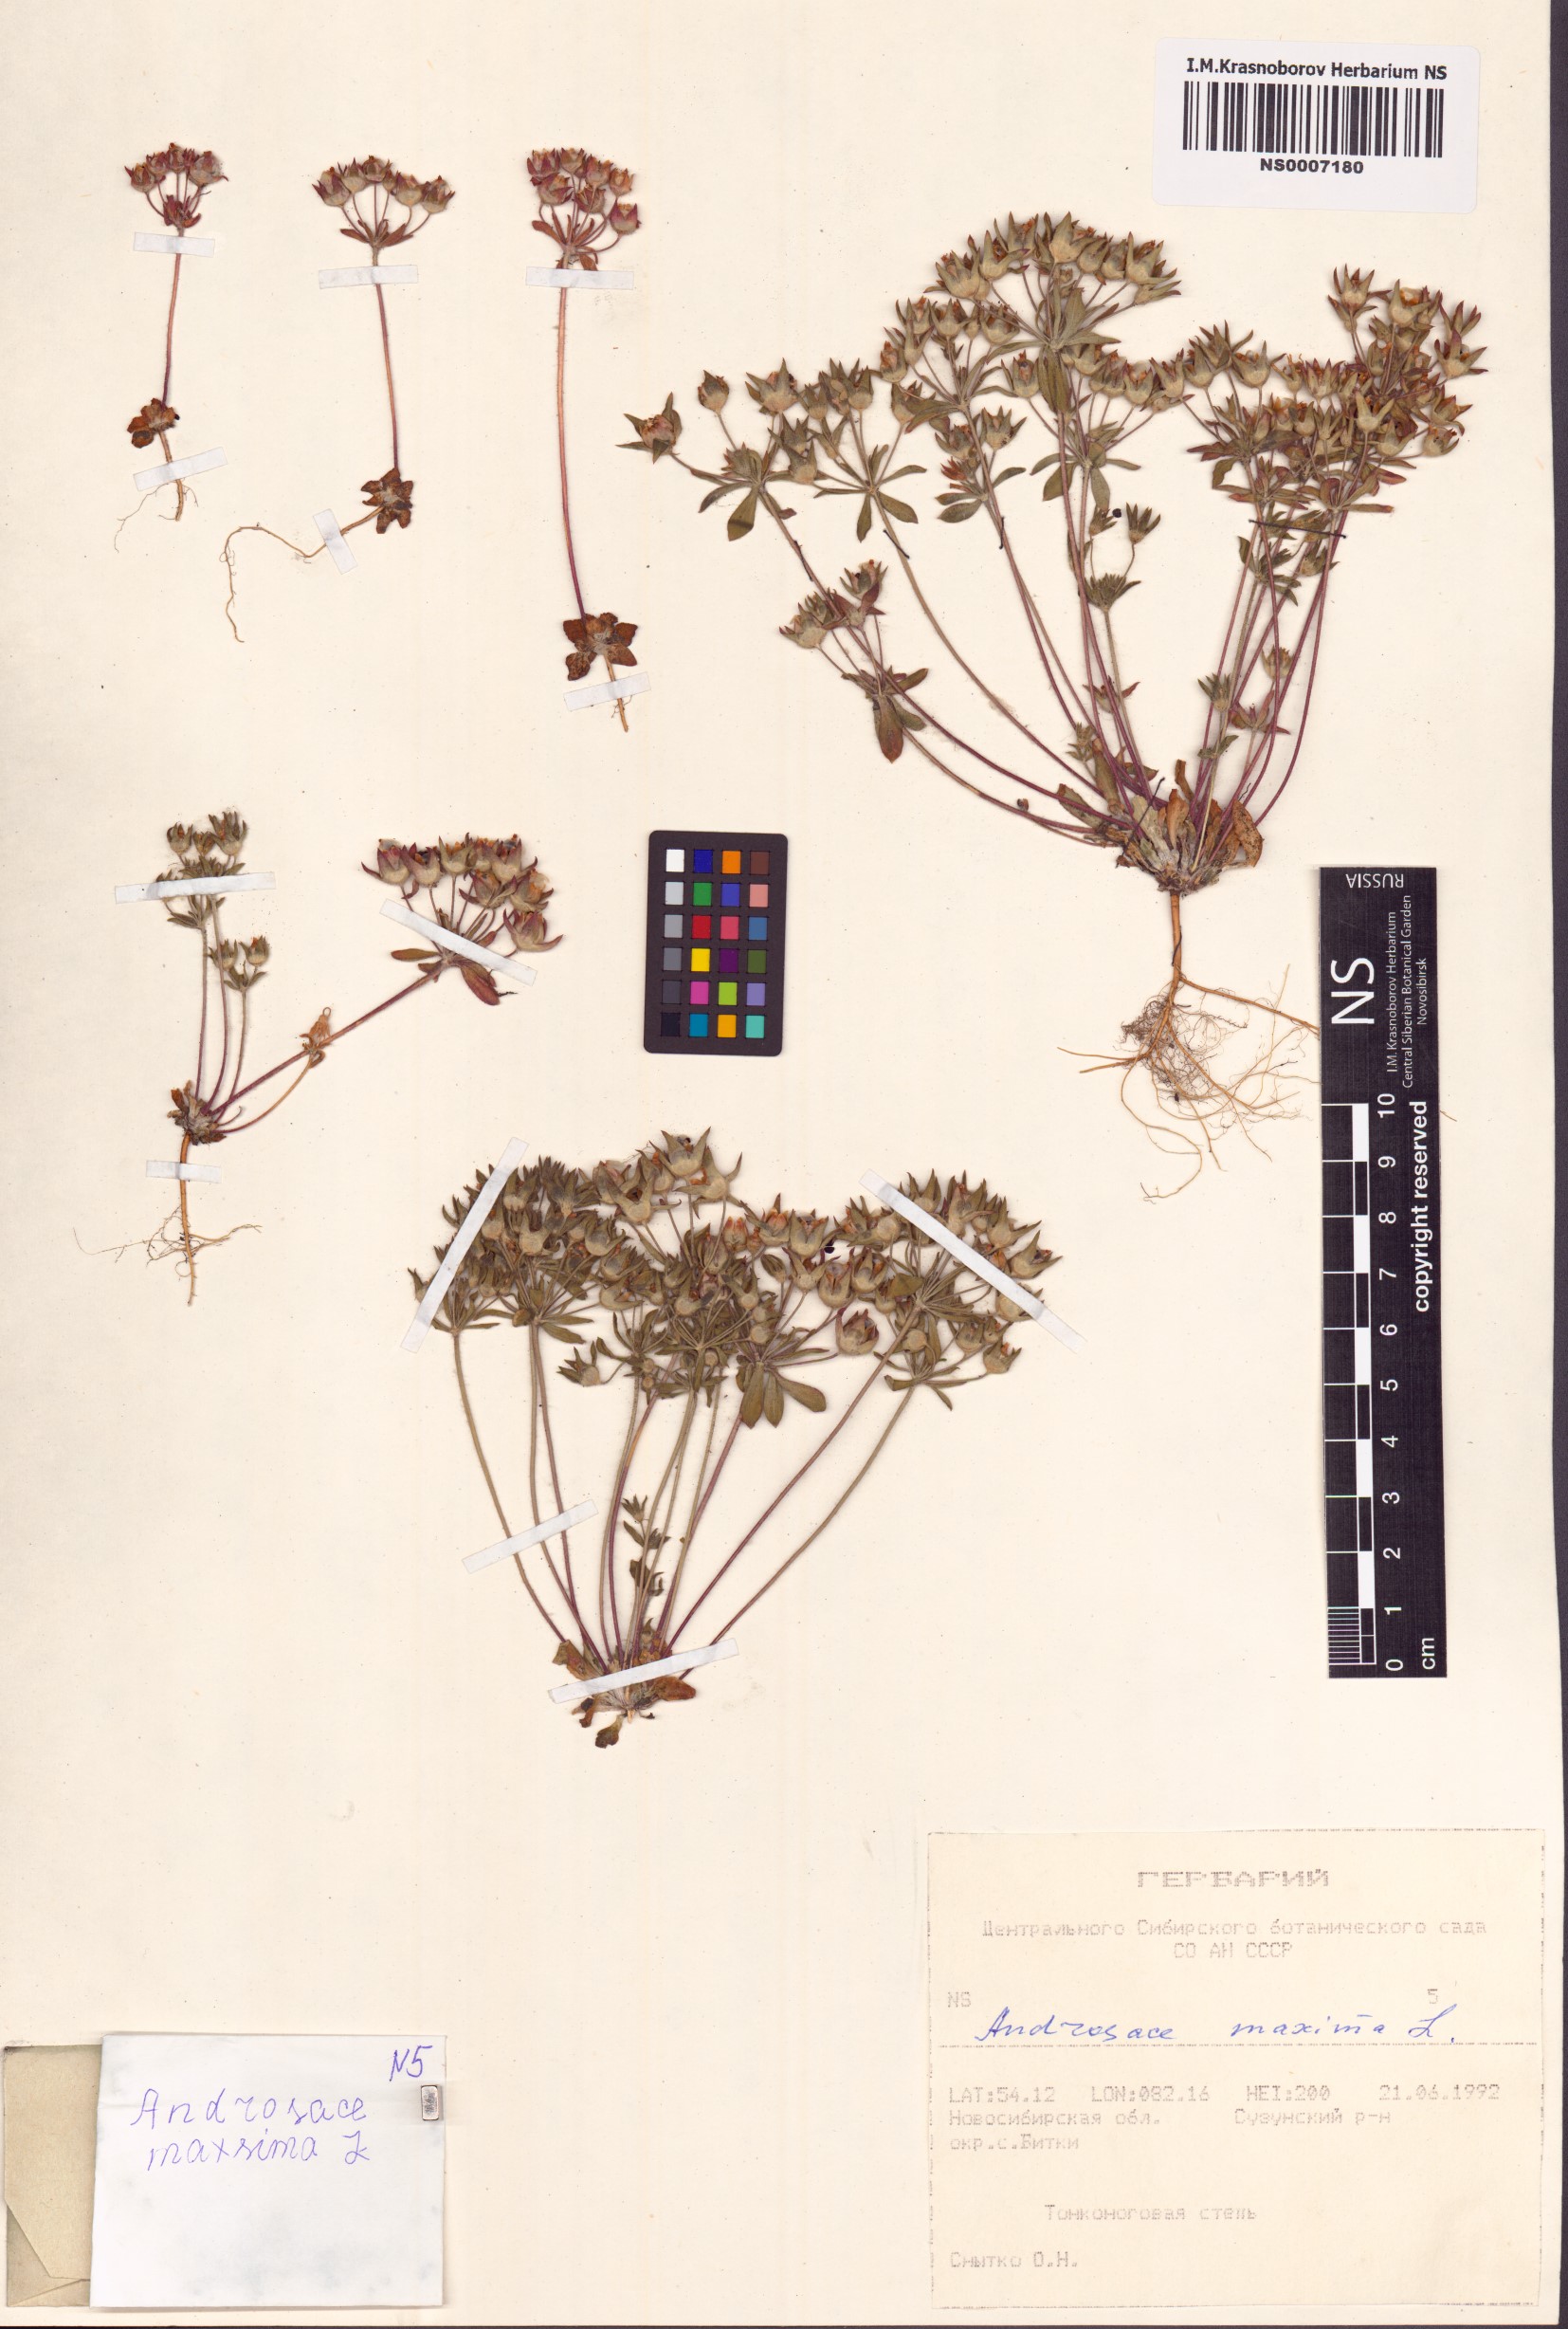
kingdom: Plantae
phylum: Tracheophyta
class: Magnoliopsida
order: Ericales
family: Primulaceae
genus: Androsace
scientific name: Androsace maxima
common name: Annual androsace
